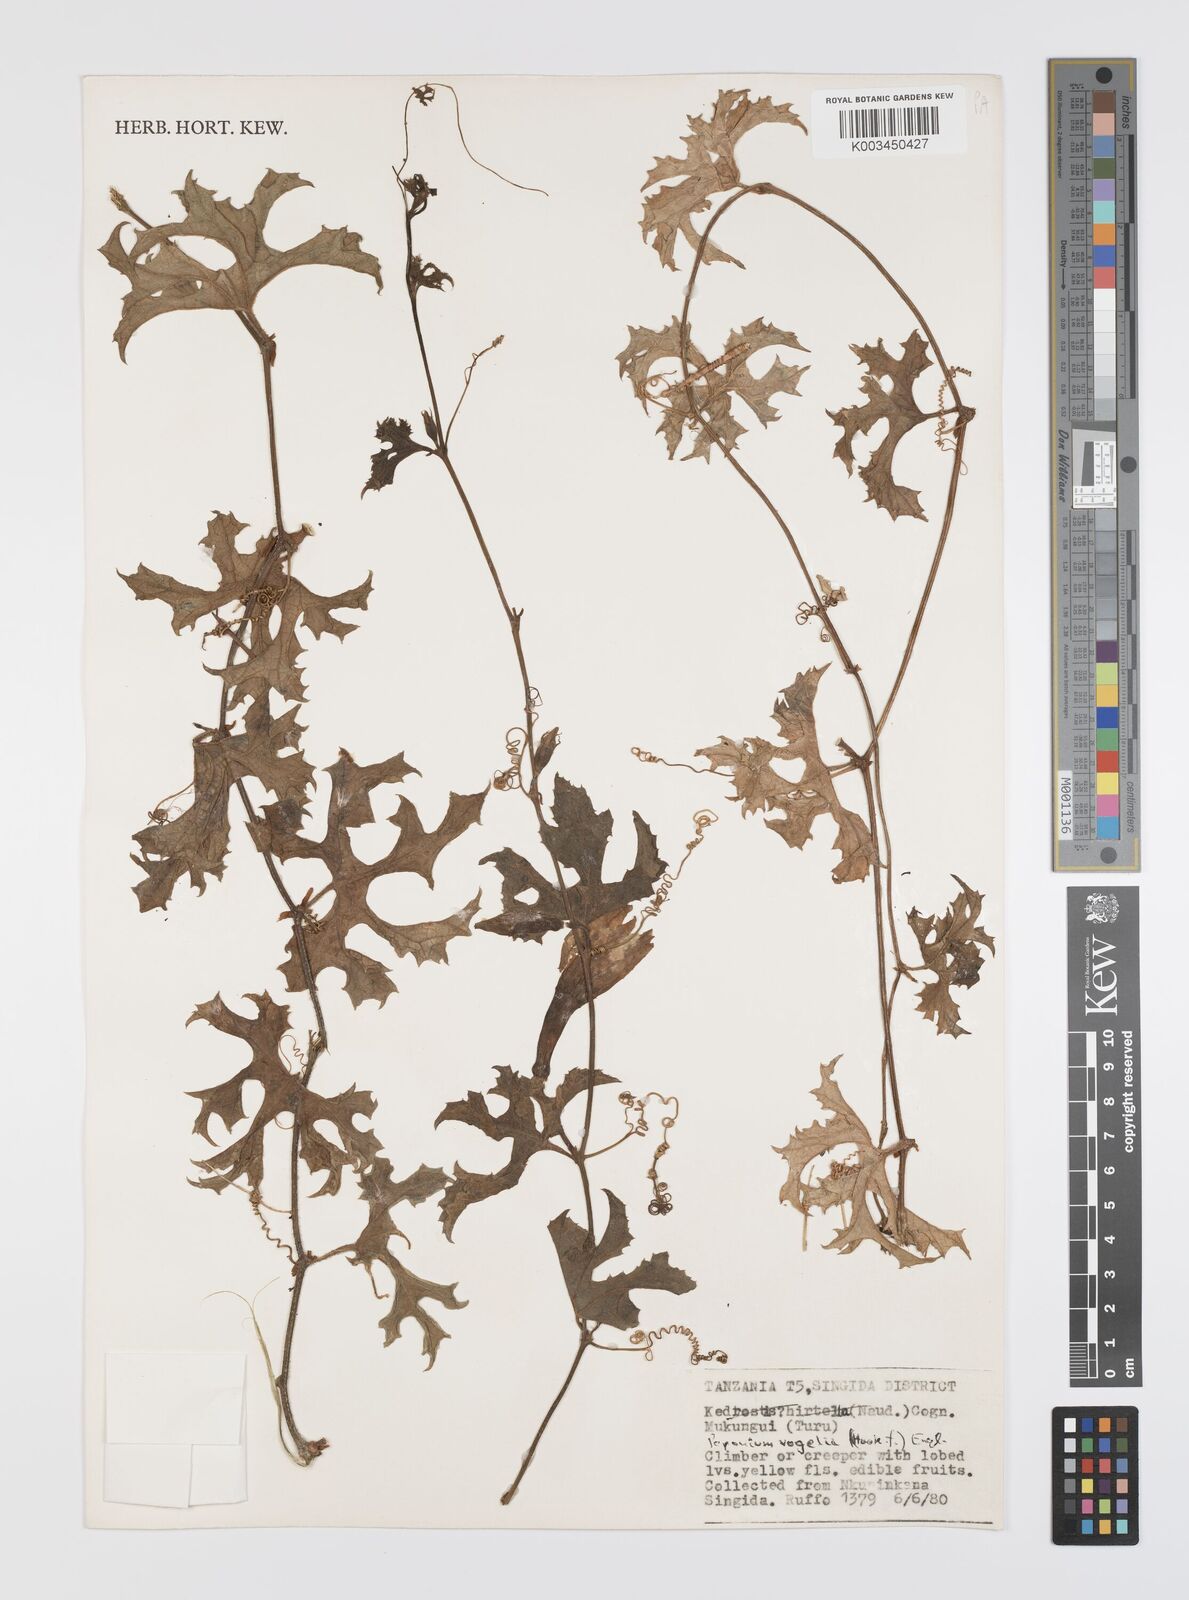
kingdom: Plantae
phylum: Tracheophyta
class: Magnoliopsida
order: Cucurbitales
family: Cucurbitaceae
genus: Peponium
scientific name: Peponium vogelii
